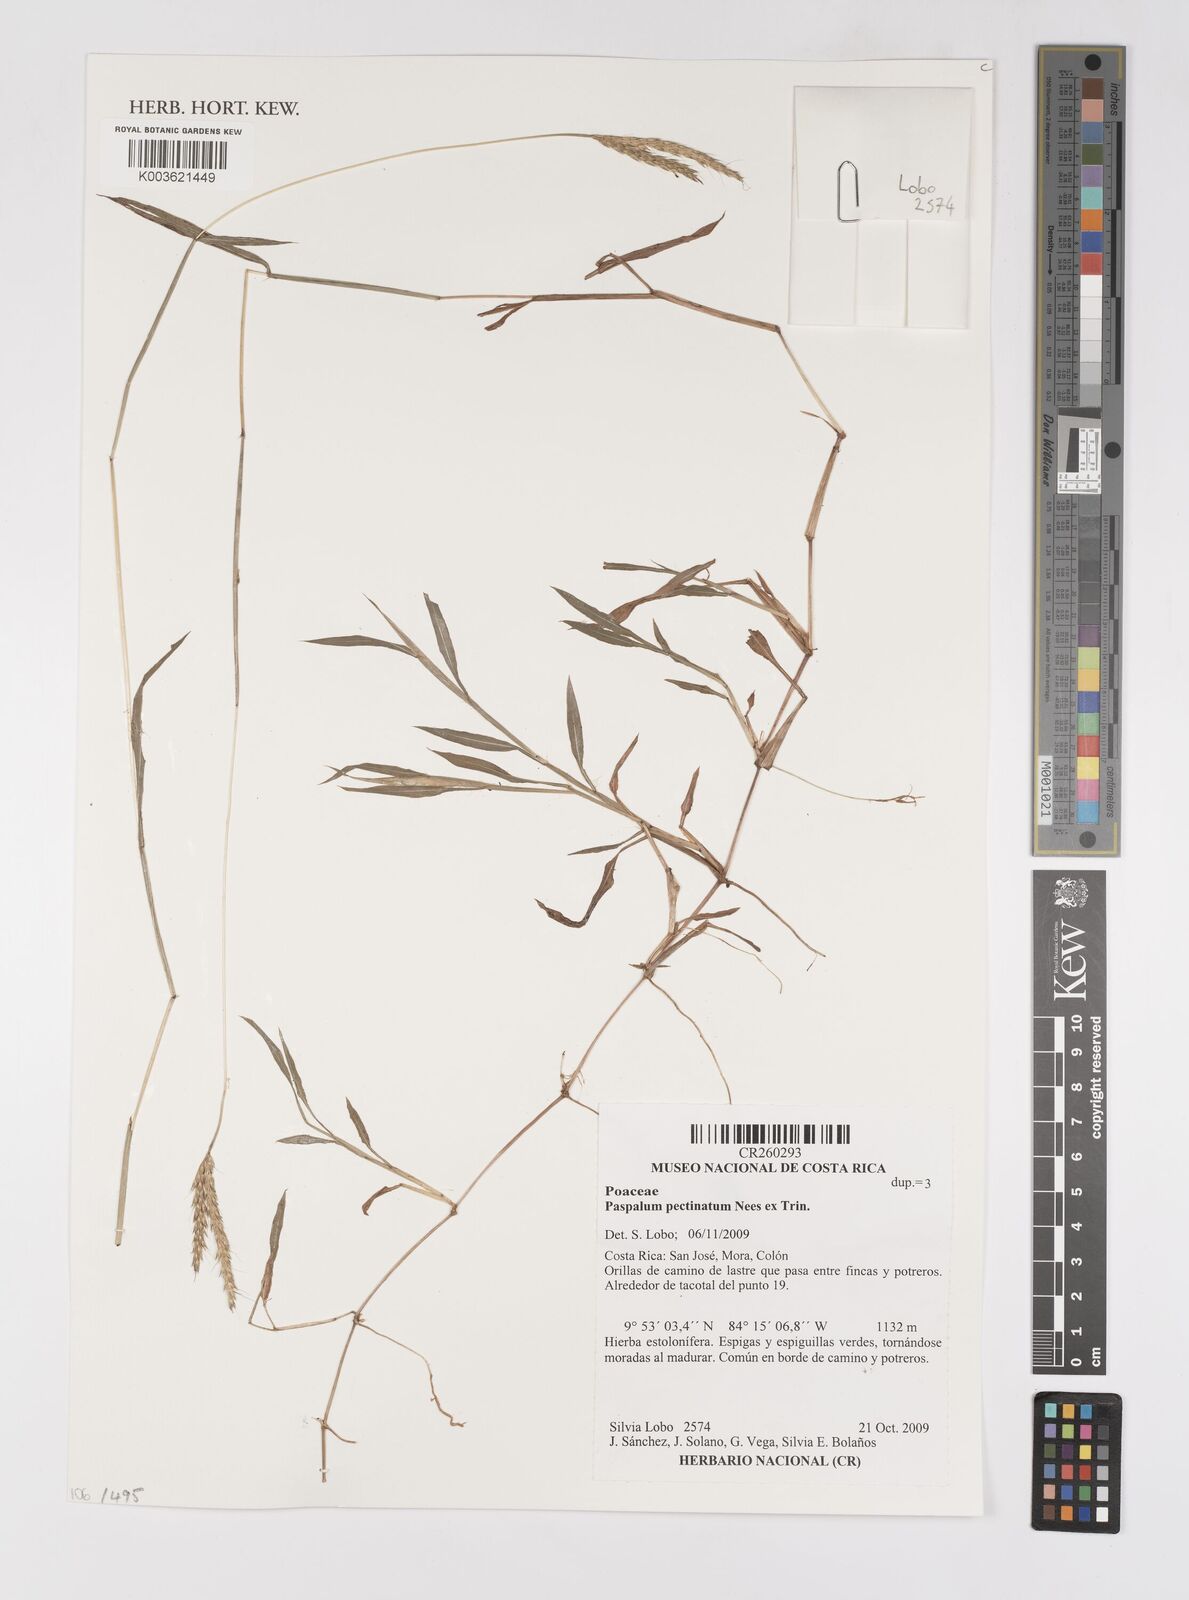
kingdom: Plantae
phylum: Tracheophyta
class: Liliopsida
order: Poales
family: Poaceae
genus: Paspalum
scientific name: Paspalum pectinatum
